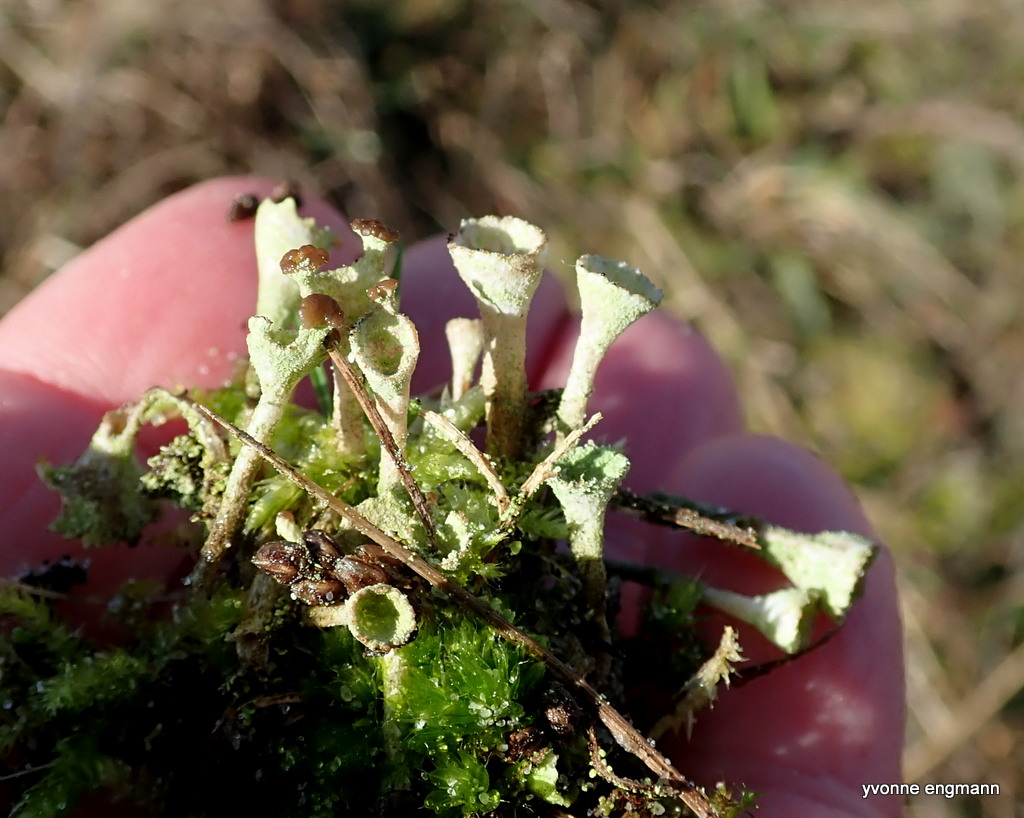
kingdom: Fungi
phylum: Ascomycota
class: Lecanoromycetes
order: Lecanorales
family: Cladoniaceae
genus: Cladonia
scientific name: Cladonia
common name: brungrøn bægerlav
